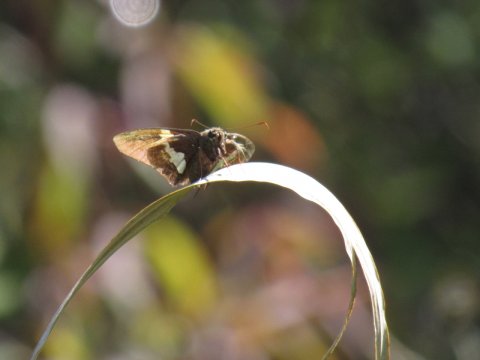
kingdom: Animalia
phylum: Arthropoda
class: Insecta
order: Lepidoptera
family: Hesperiidae
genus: Epargyreus
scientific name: Epargyreus clarus
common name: Silver-spotted Skipper
